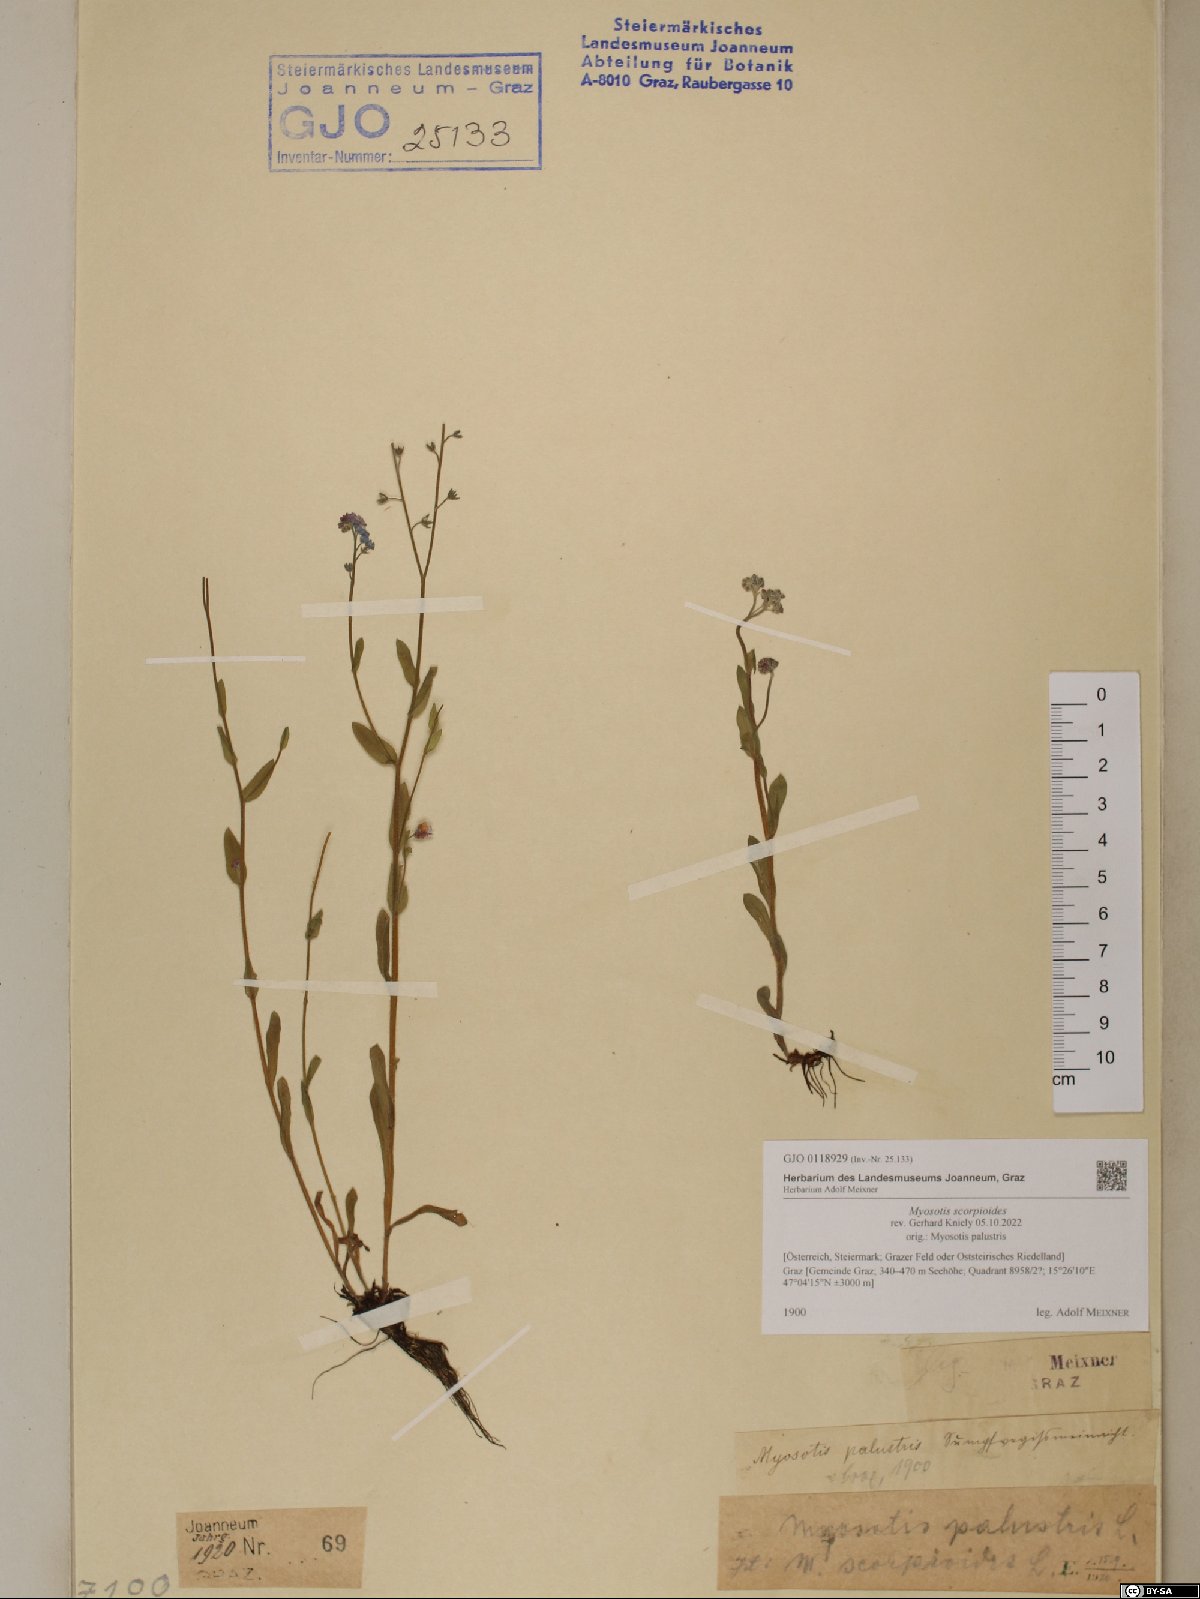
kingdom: Plantae
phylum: Tracheophyta
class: Magnoliopsida
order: Boraginales
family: Boraginaceae
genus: Myosotis
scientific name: Myosotis scorpioides
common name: Water forget-me-not
